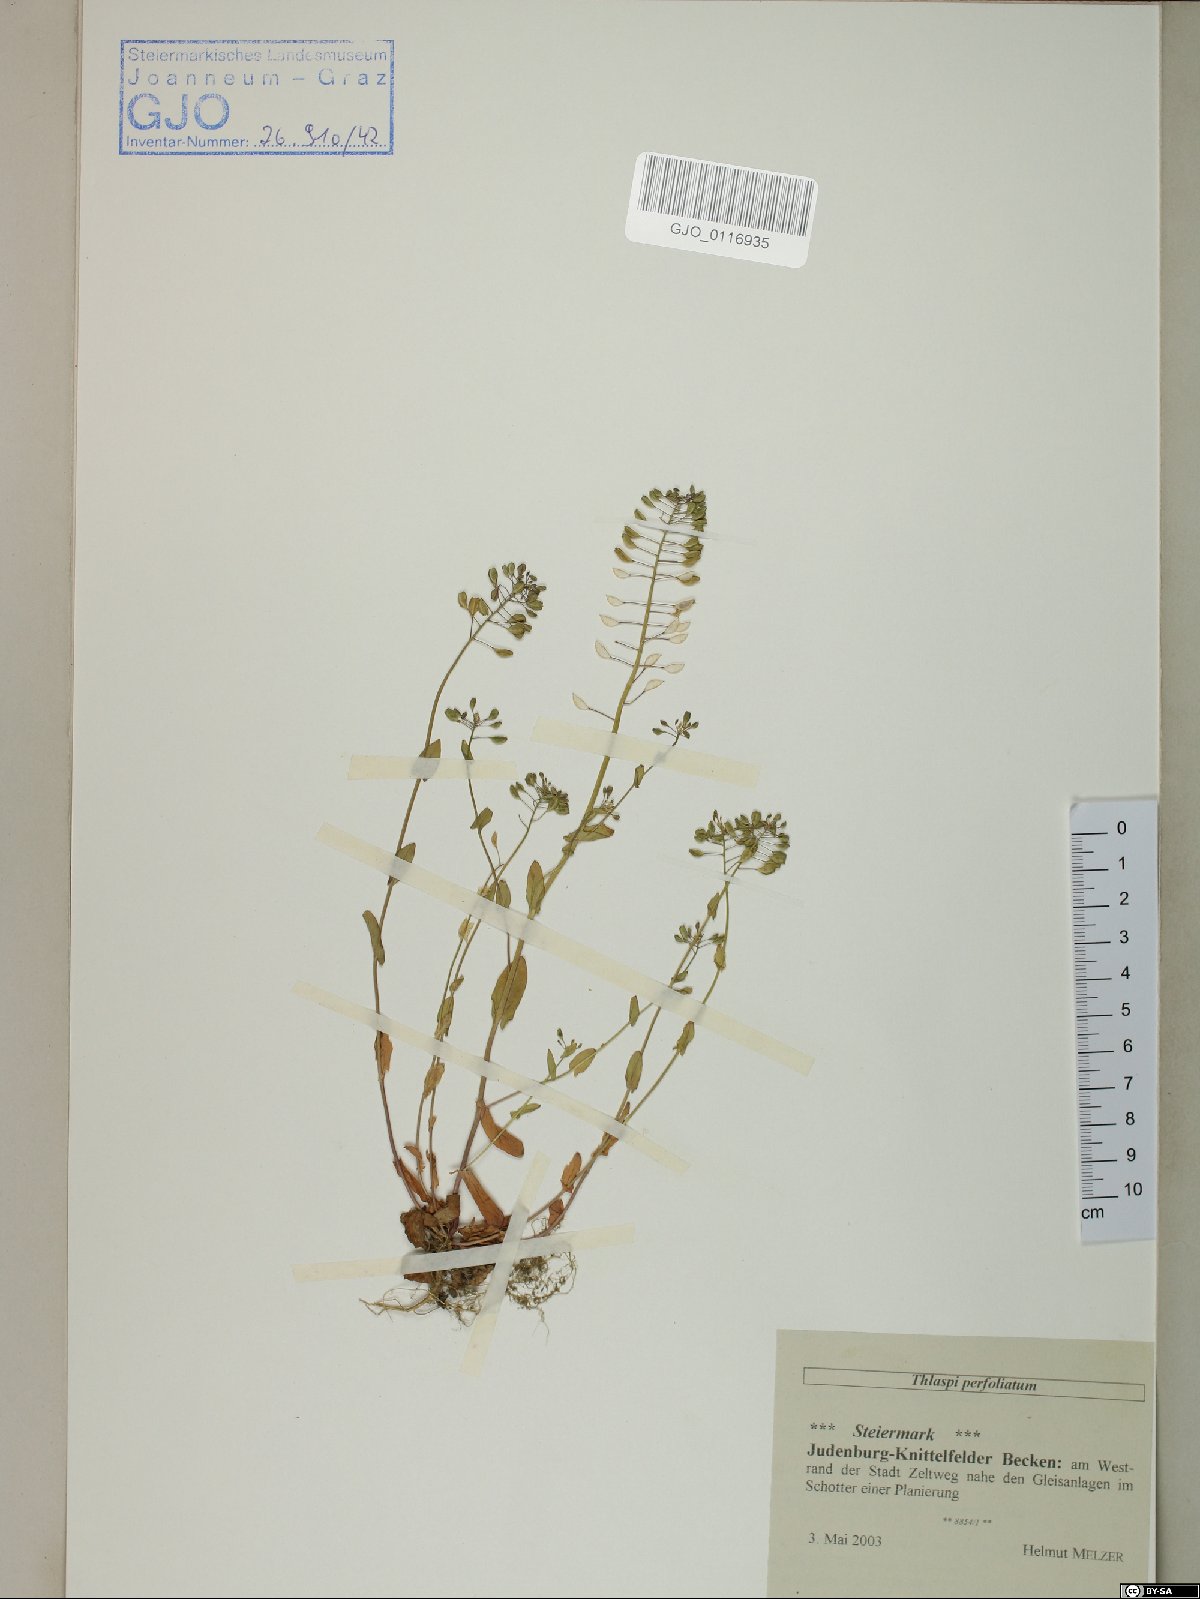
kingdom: Plantae
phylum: Tracheophyta
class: Magnoliopsida
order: Brassicales
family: Brassicaceae
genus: Noccaea
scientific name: Noccaea perfoliata
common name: Perfoliate pennycress
